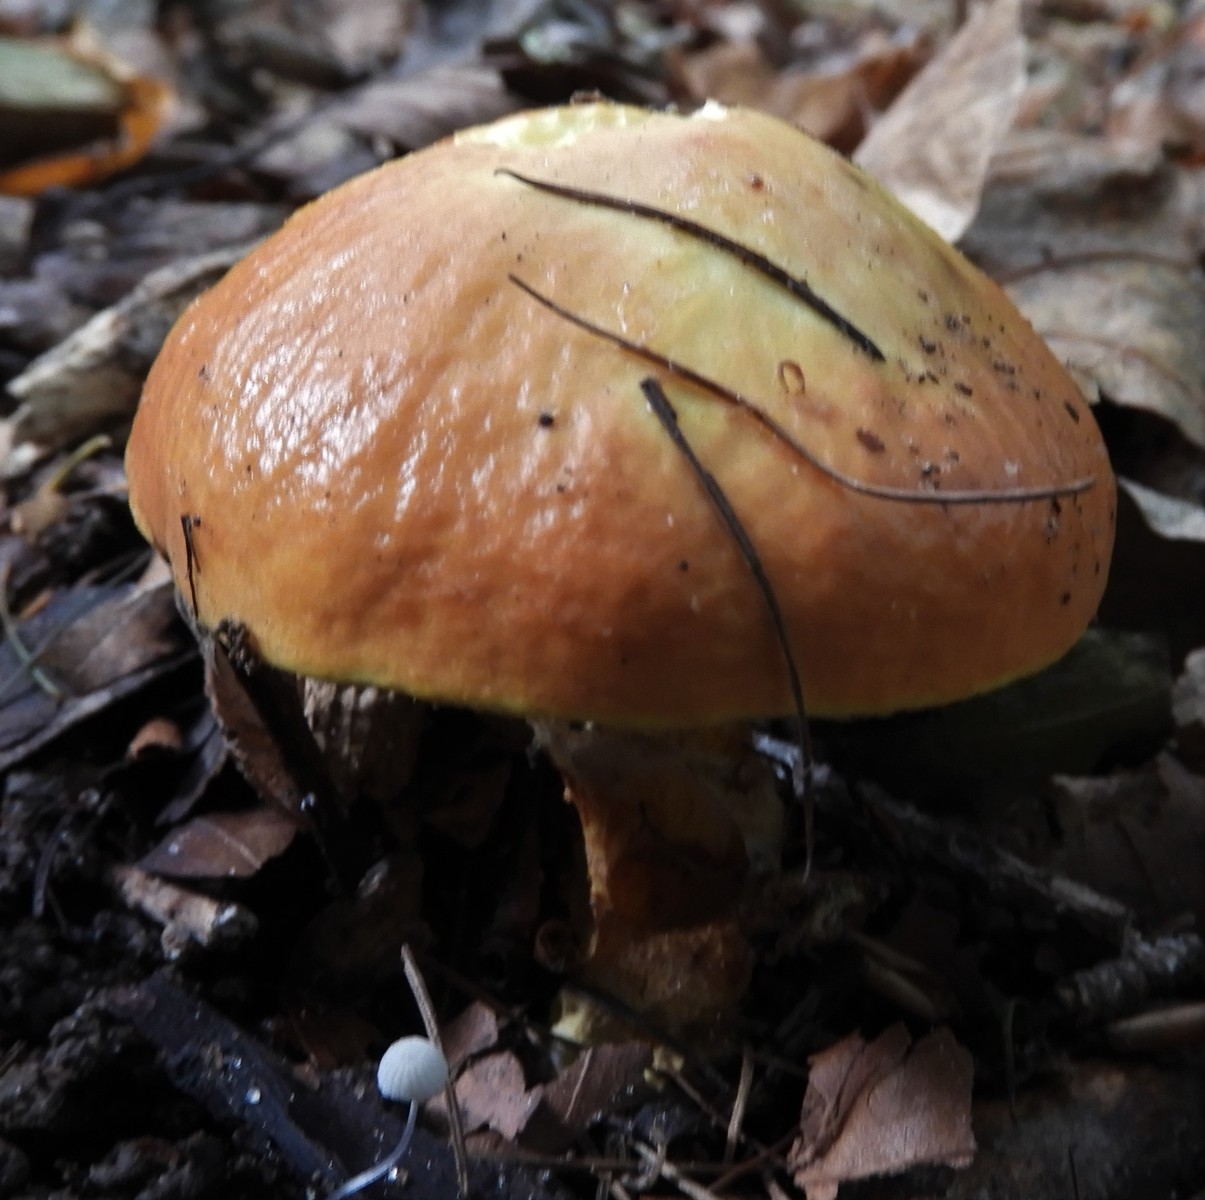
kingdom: Fungi
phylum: Basidiomycota
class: Agaricomycetes
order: Boletales
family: Suillaceae
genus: Suillus
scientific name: Suillus grevillei
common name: lærke-slimrørhat
